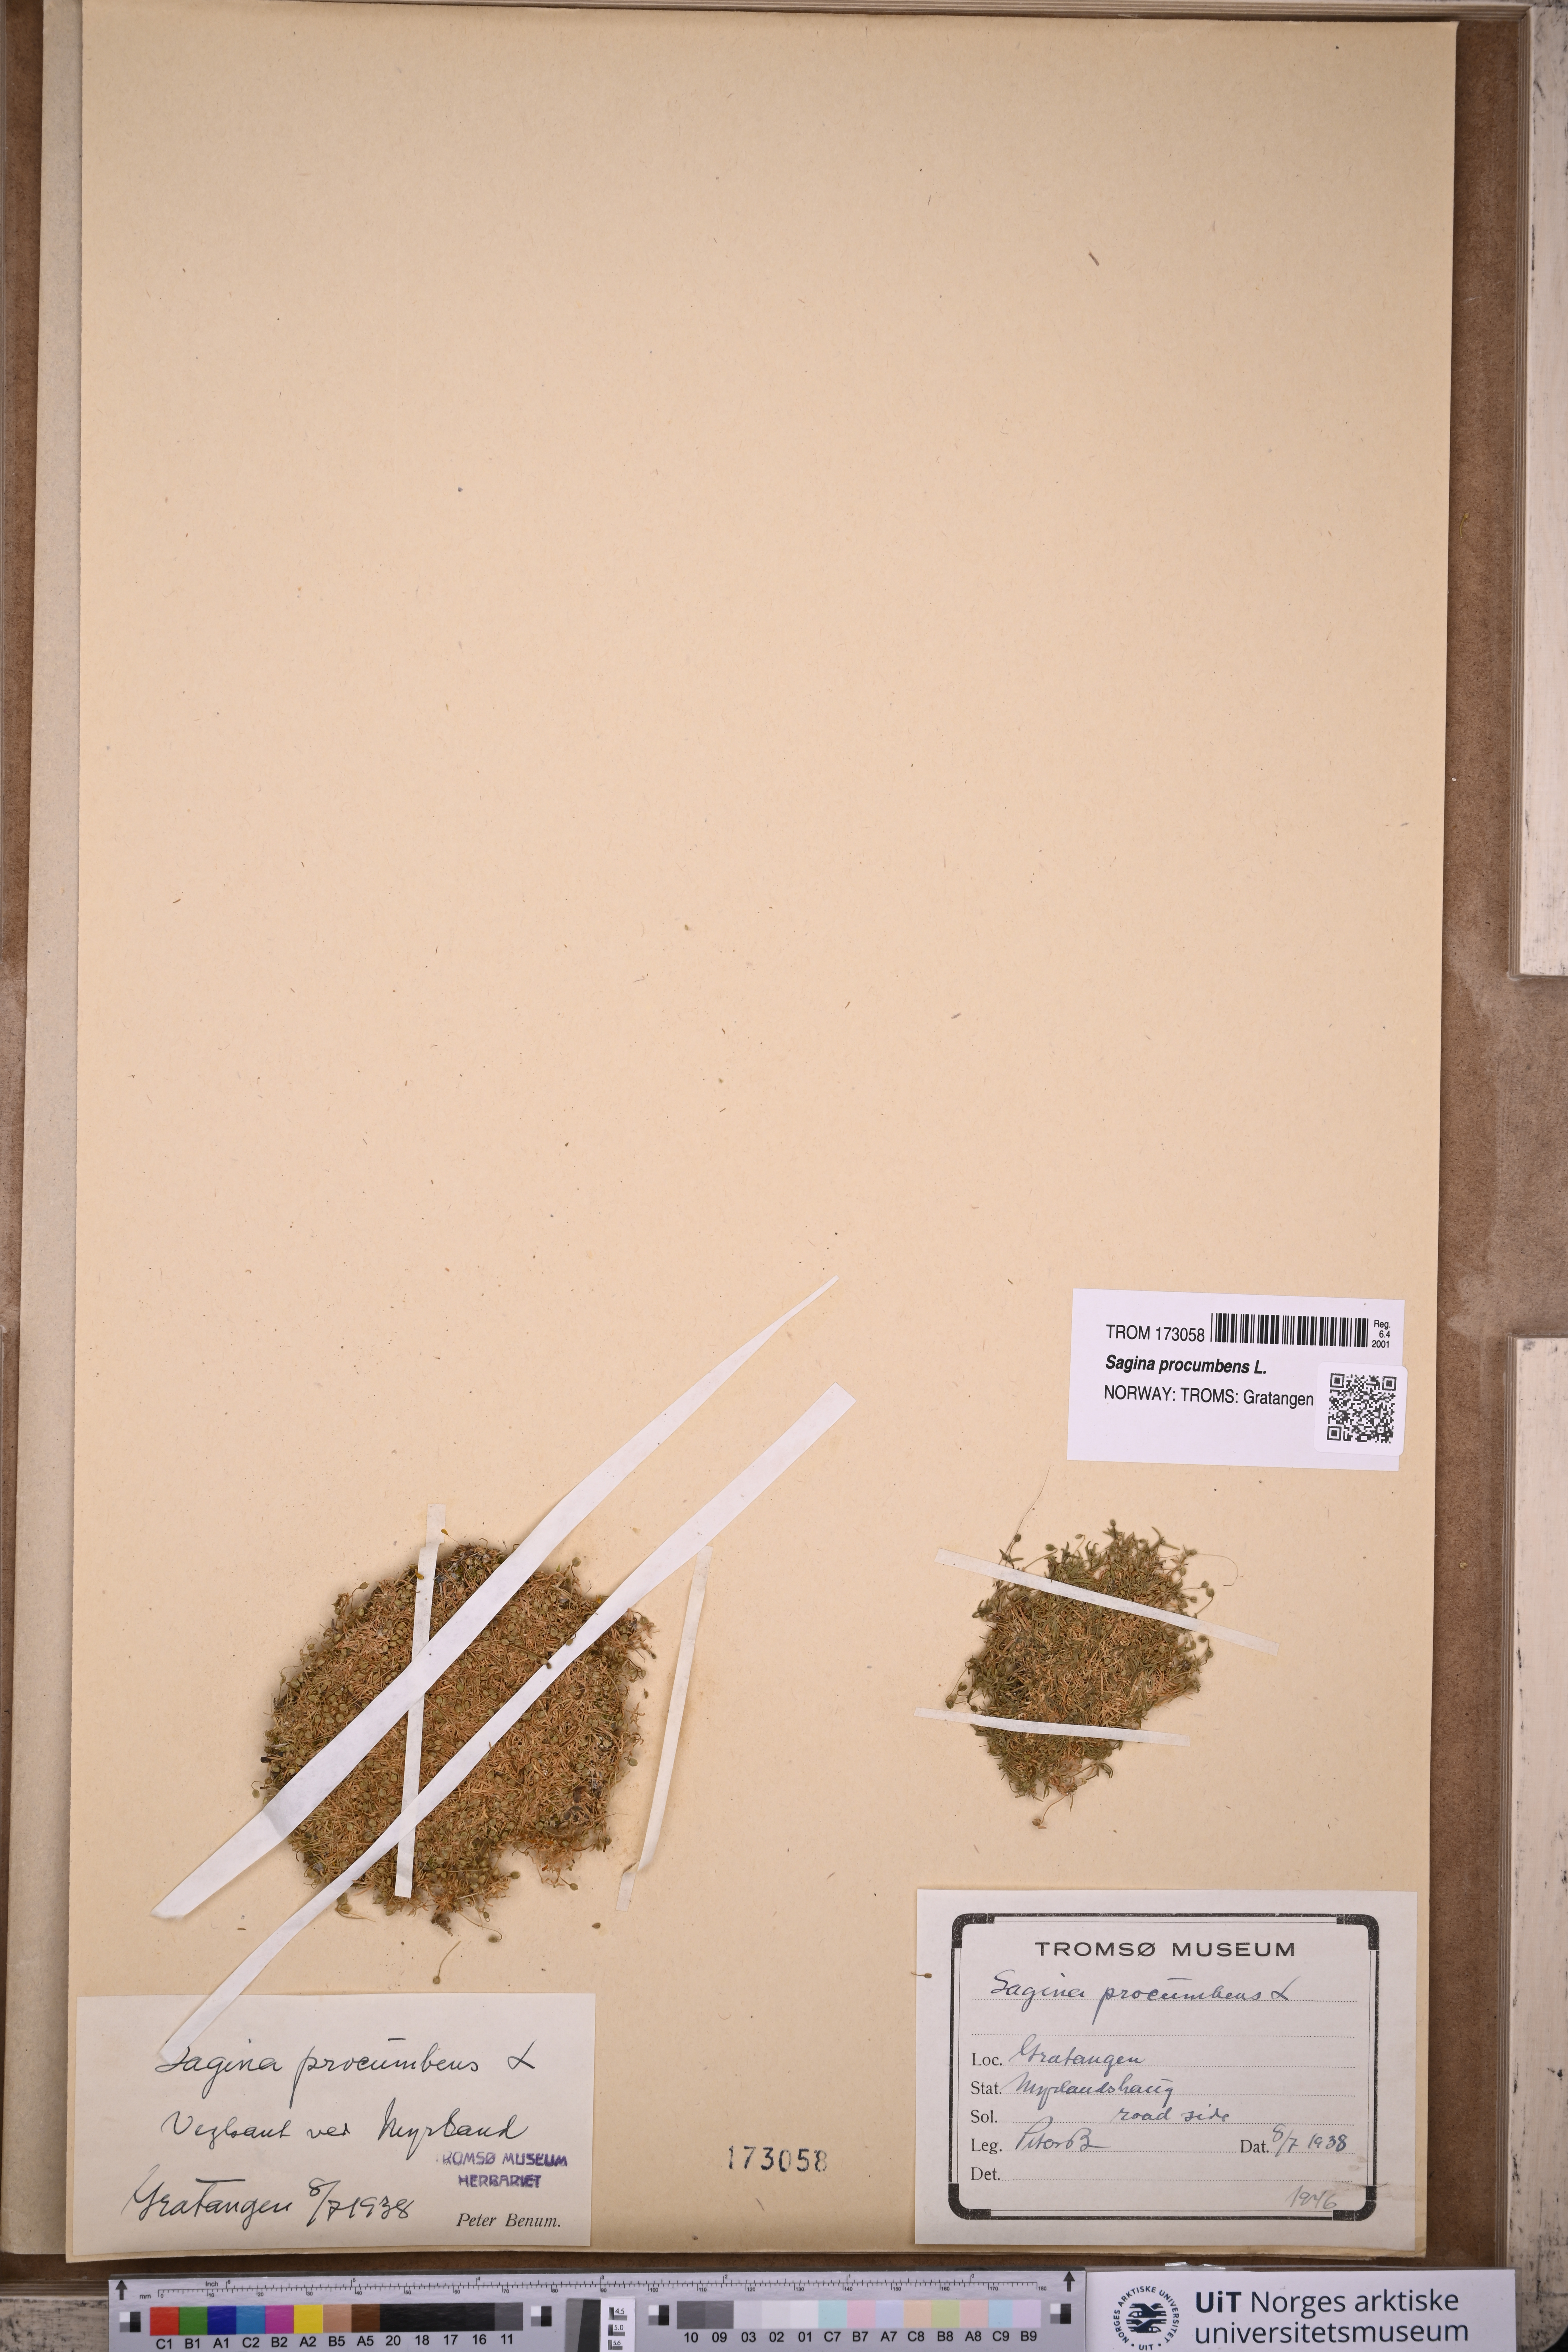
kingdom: Plantae
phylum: Tracheophyta
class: Magnoliopsida
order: Caryophyllales
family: Caryophyllaceae
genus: Sagina
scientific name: Sagina procumbens
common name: Procumbent pearlwort
